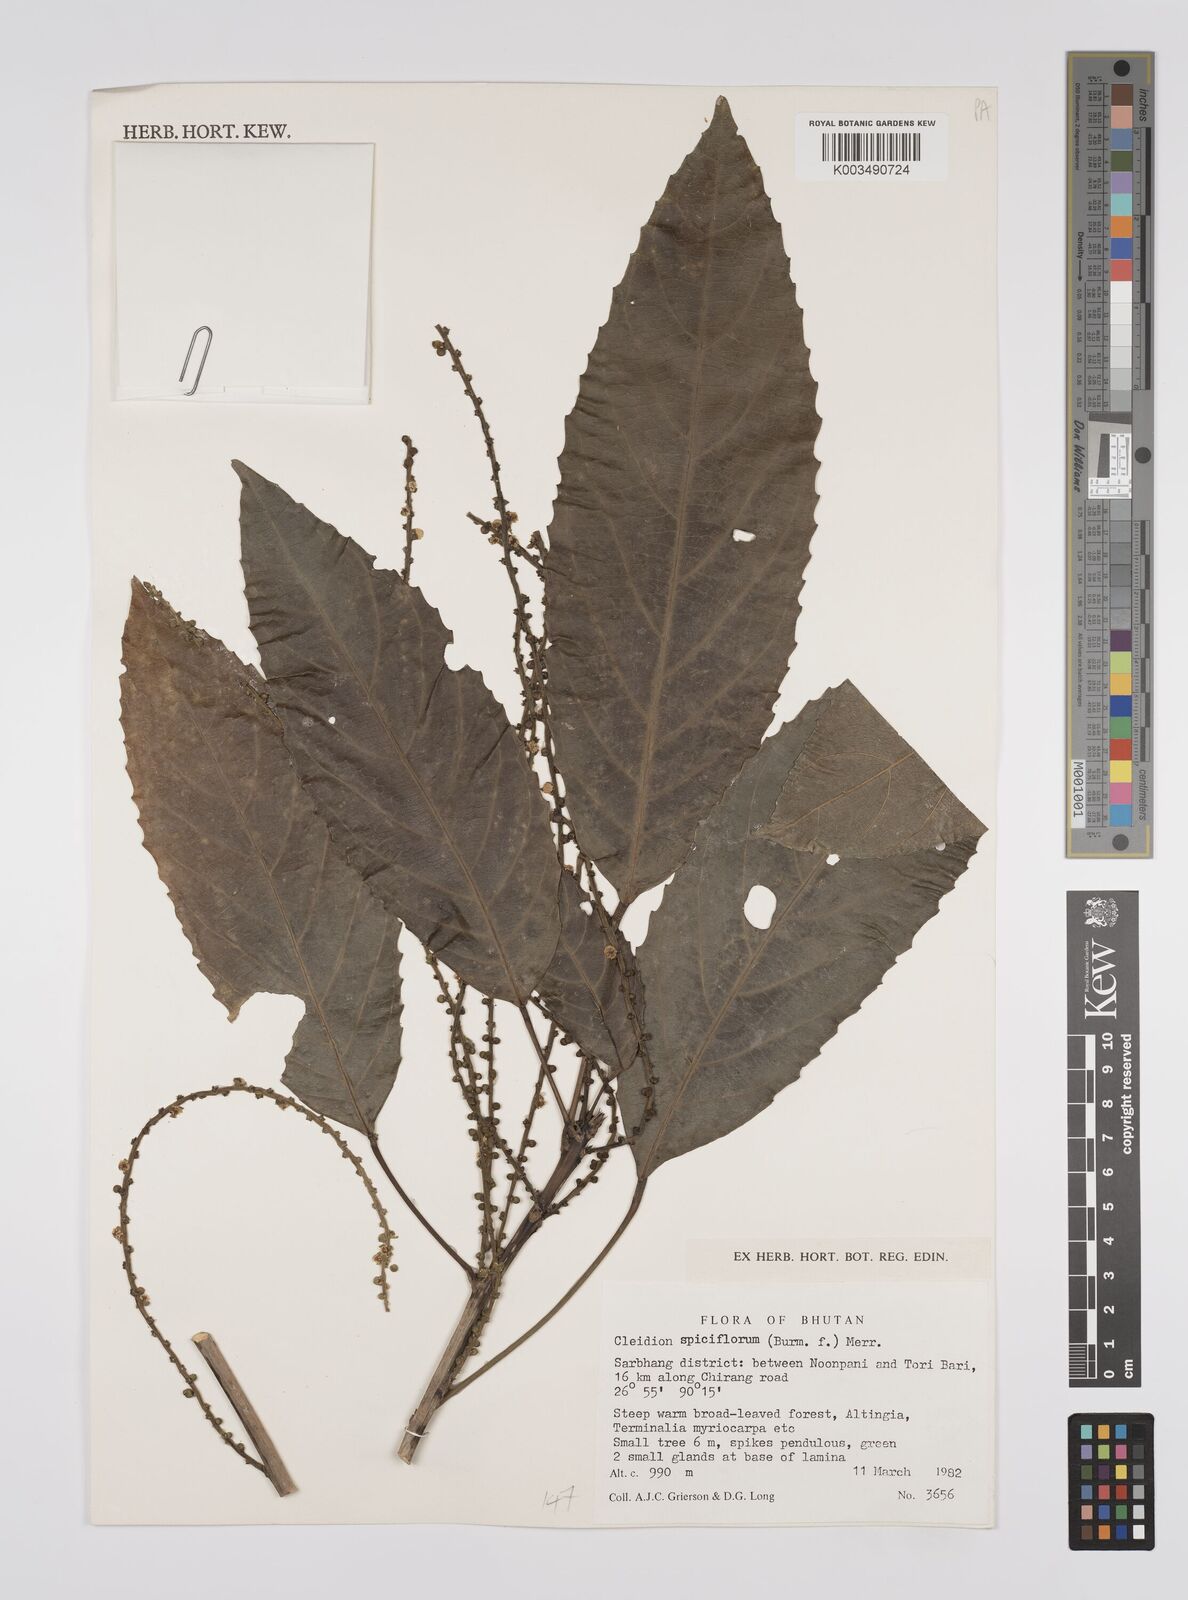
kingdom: Plantae
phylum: Tracheophyta
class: Magnoliopsida
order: Malpighiales
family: Euphorbiaceae
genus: Acalypha
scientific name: Acalypha spiciflora
